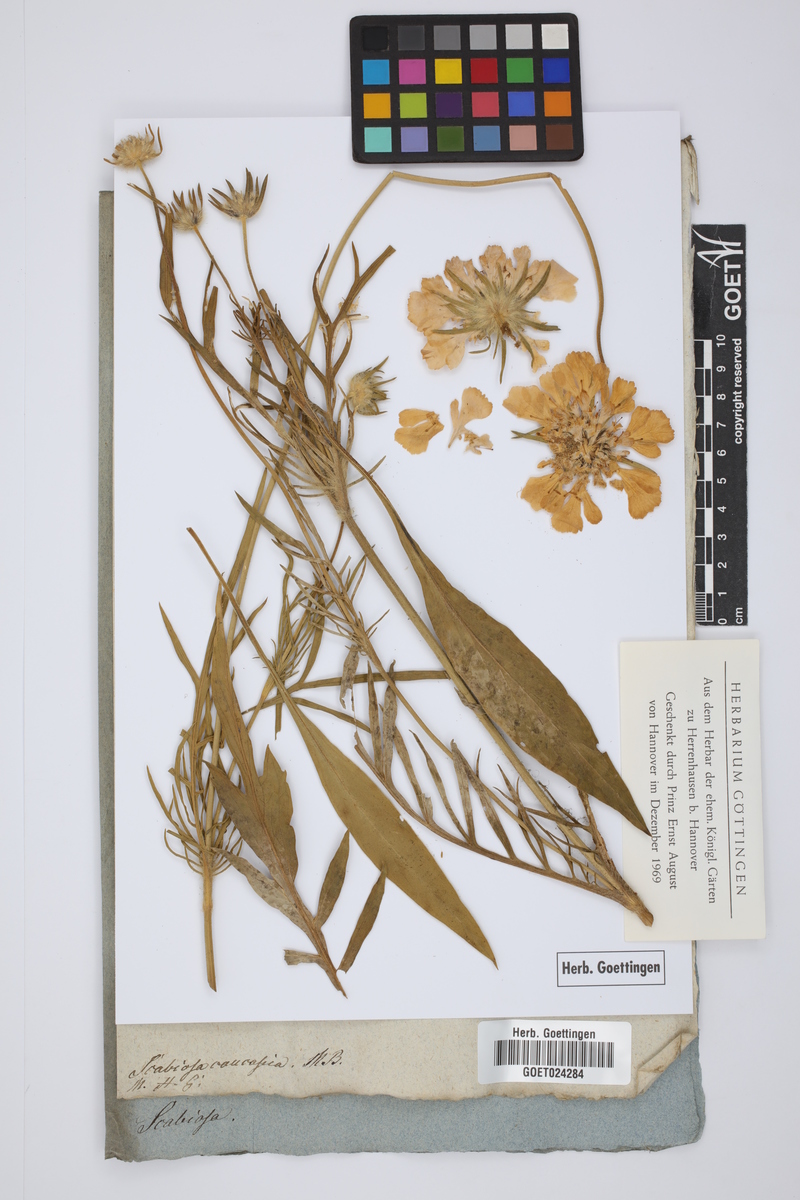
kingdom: Plantae
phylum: Tracheophyta
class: Magnoliopsida
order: Dipsacales
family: Caprifoliaceae
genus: Lomelosia
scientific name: Lomelosia caucasica
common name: Pincushion-flower
